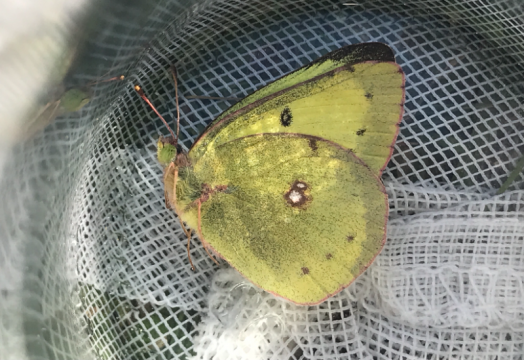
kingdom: Animalia
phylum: Arthropoda
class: Insecta
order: Lepidoptera
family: Pieridae
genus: Colias
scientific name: Colias philodice
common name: Clouded Sulphur
